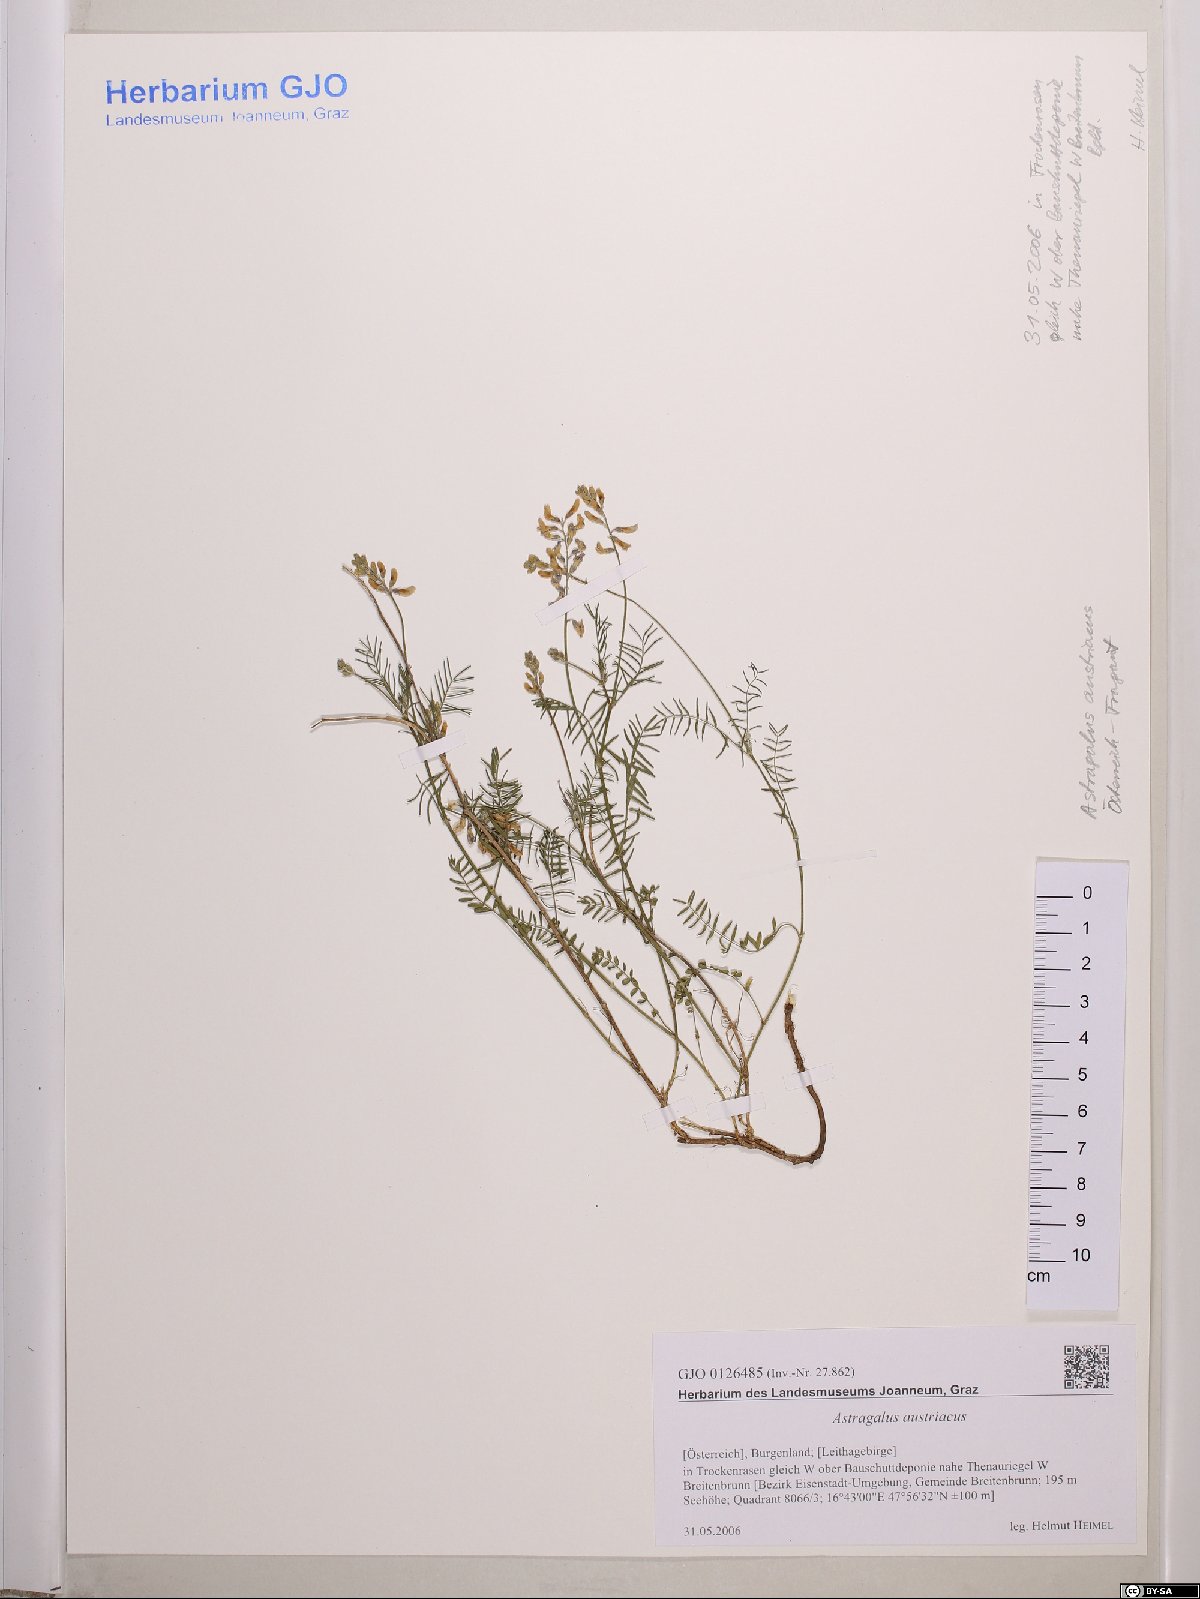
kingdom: Plantae
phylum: Tracheophyta
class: Magnoliopsida
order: Fabales
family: Fabaceae
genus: Astragalus
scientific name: Astragalus austriacus
